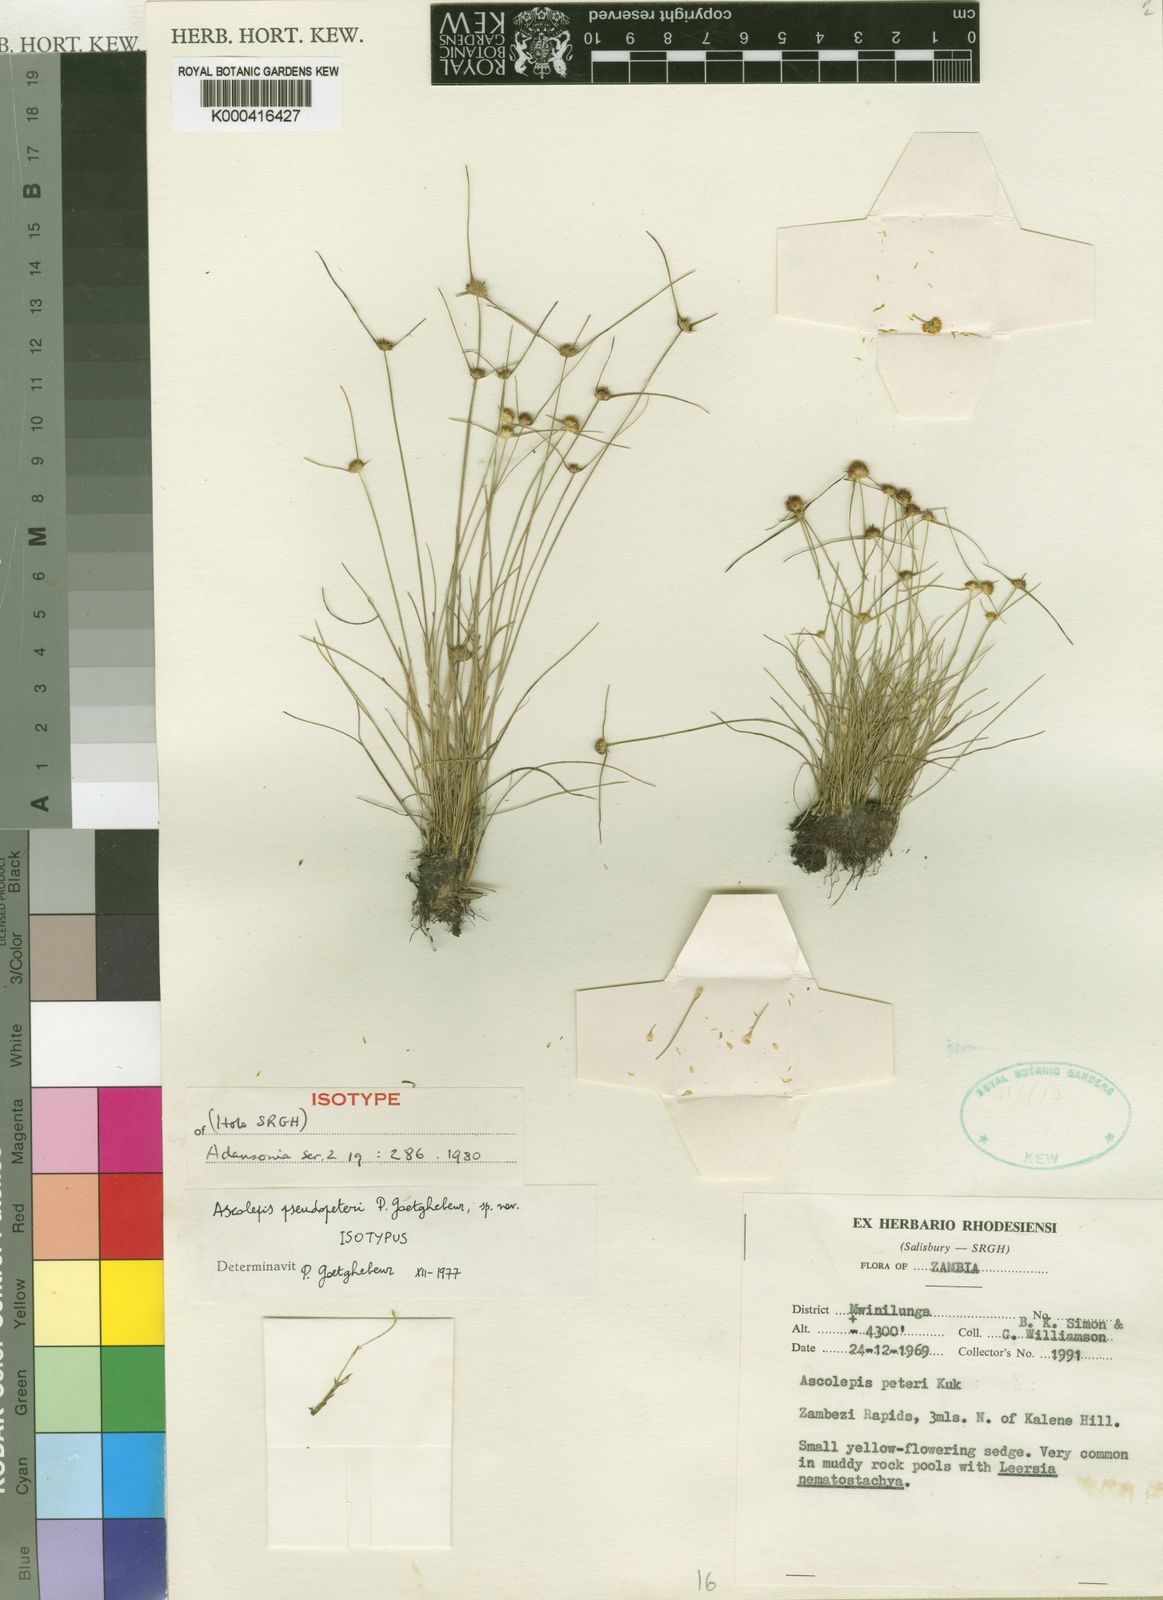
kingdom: Plantae
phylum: Tracheophyta
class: Liliopsida
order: Poales
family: Cyperaceae
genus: Cyperus
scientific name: Cyperus pseudopeteri
